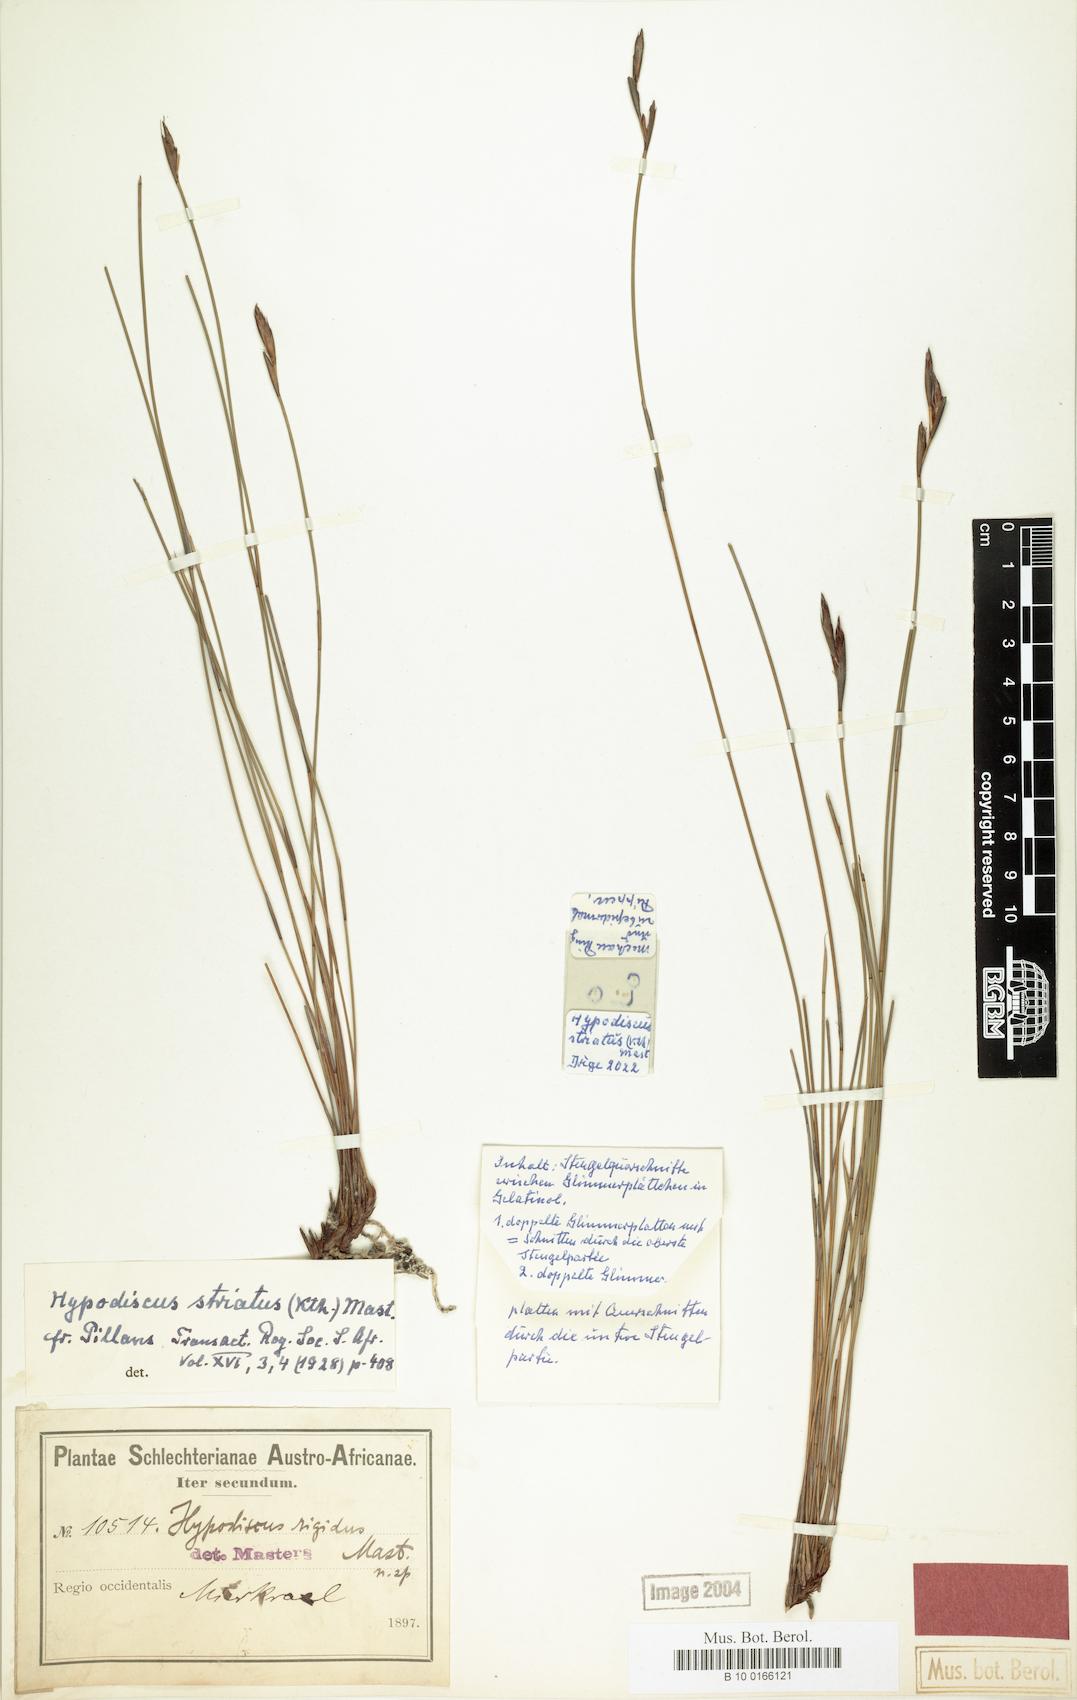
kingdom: Plantae
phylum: Tracheophyta
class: Liliopsida
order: Poales
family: Restionaceae
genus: Hypodiscus
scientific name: Hypodiscus striatus
